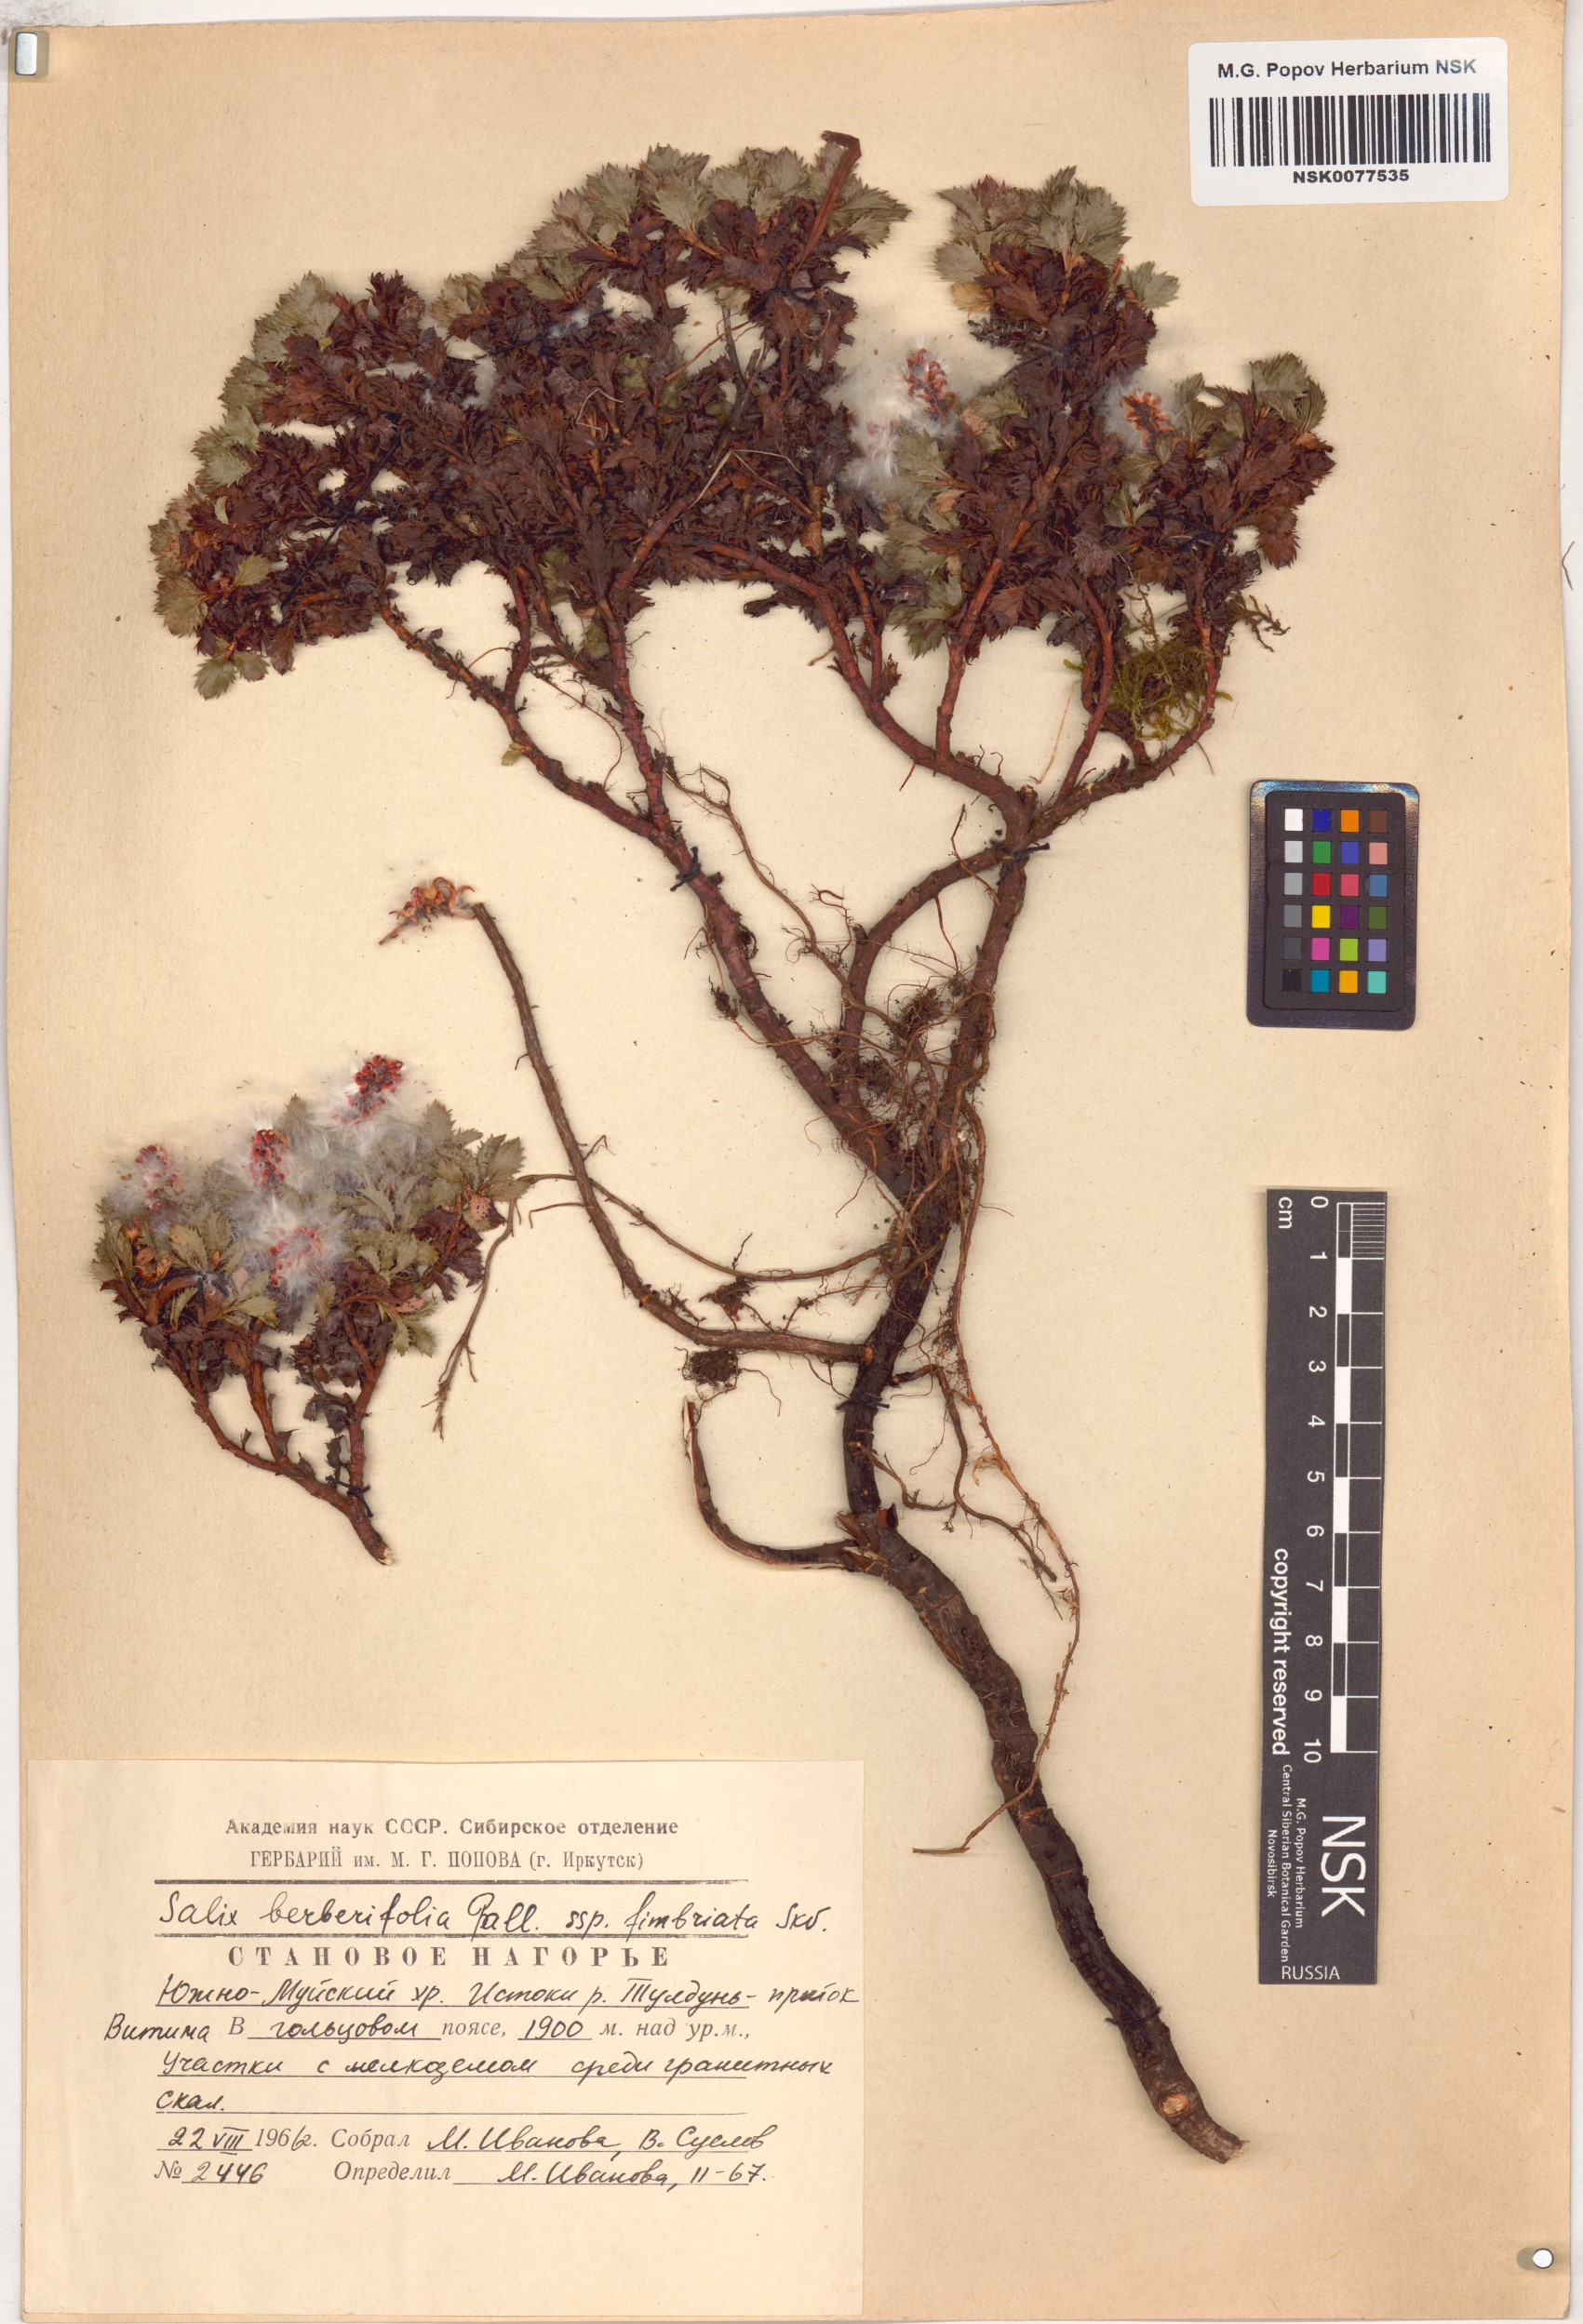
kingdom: Plantae
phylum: Tracheophyta
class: Magnoliopsida
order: Malpighiales
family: Salicaceae
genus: Salix
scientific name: Salix berberifolia
